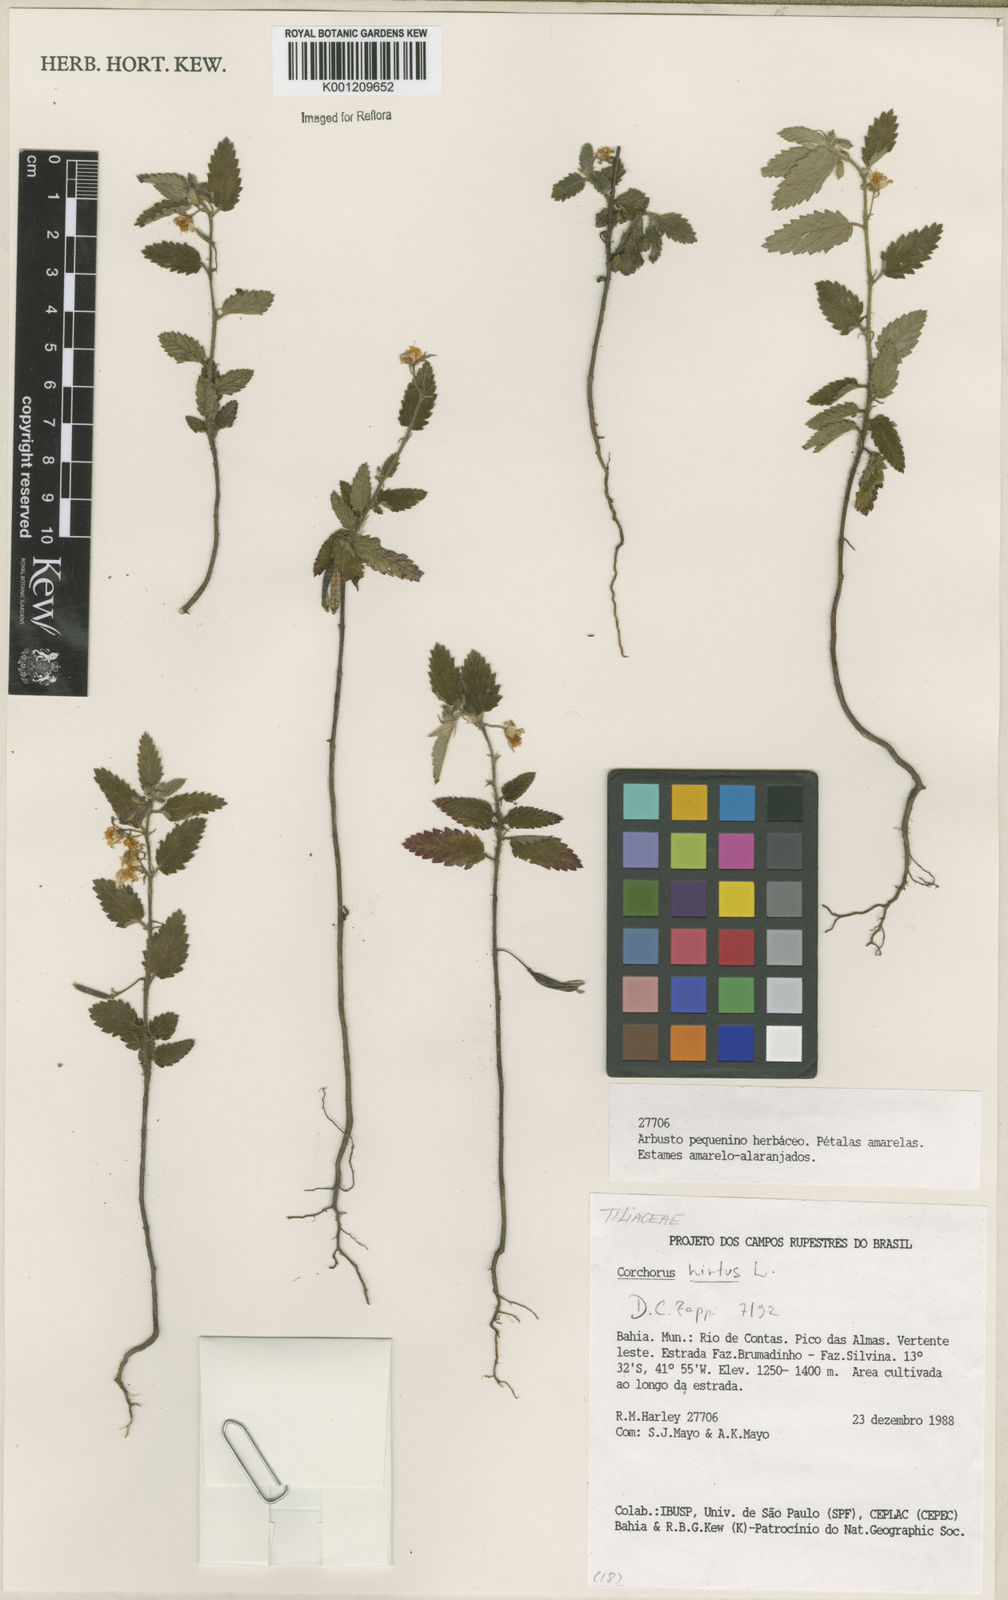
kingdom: Plantae
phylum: Tracheophyta
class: Magnoliopsida
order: Malvales
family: Malvaceae
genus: Corchorus
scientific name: Corchorus hirtus
